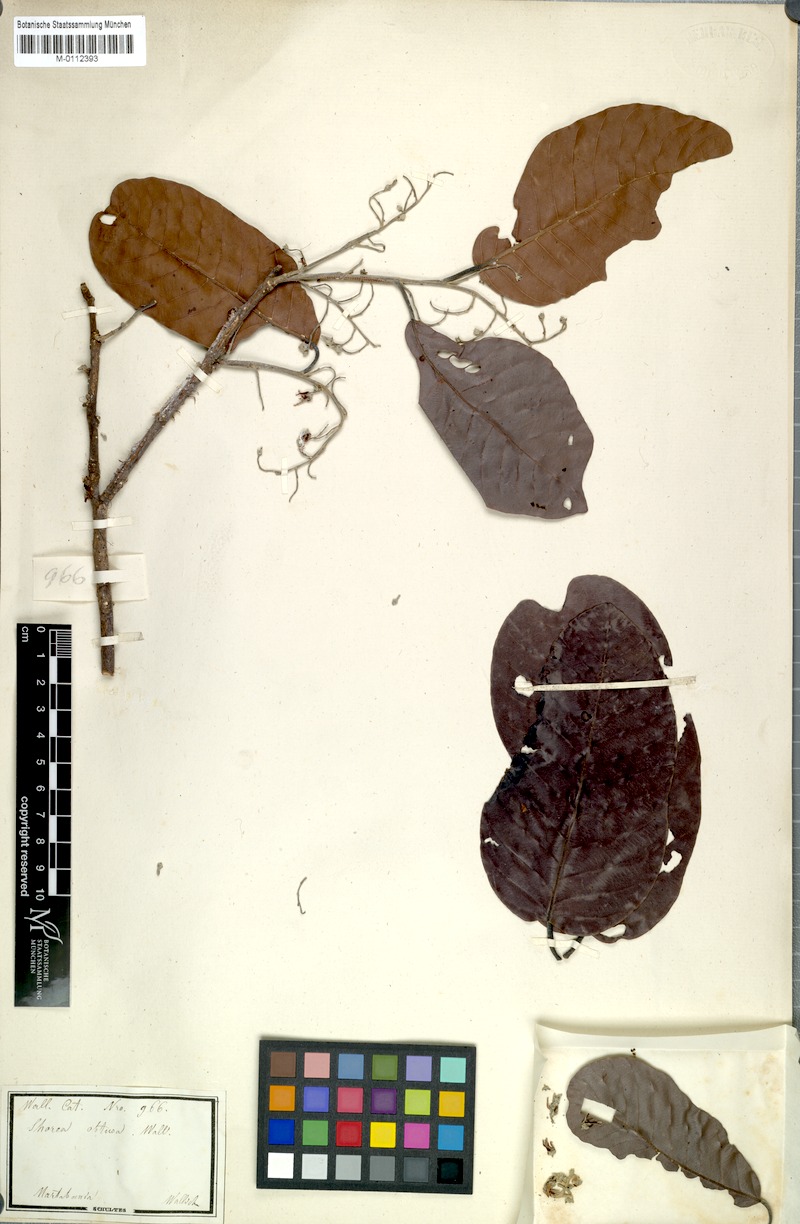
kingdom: Plantae
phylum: Tracheophyta
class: Magnoliopsida
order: Malvales
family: Dipterocarpaceae
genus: Shorea
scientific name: Shorea obtusa
